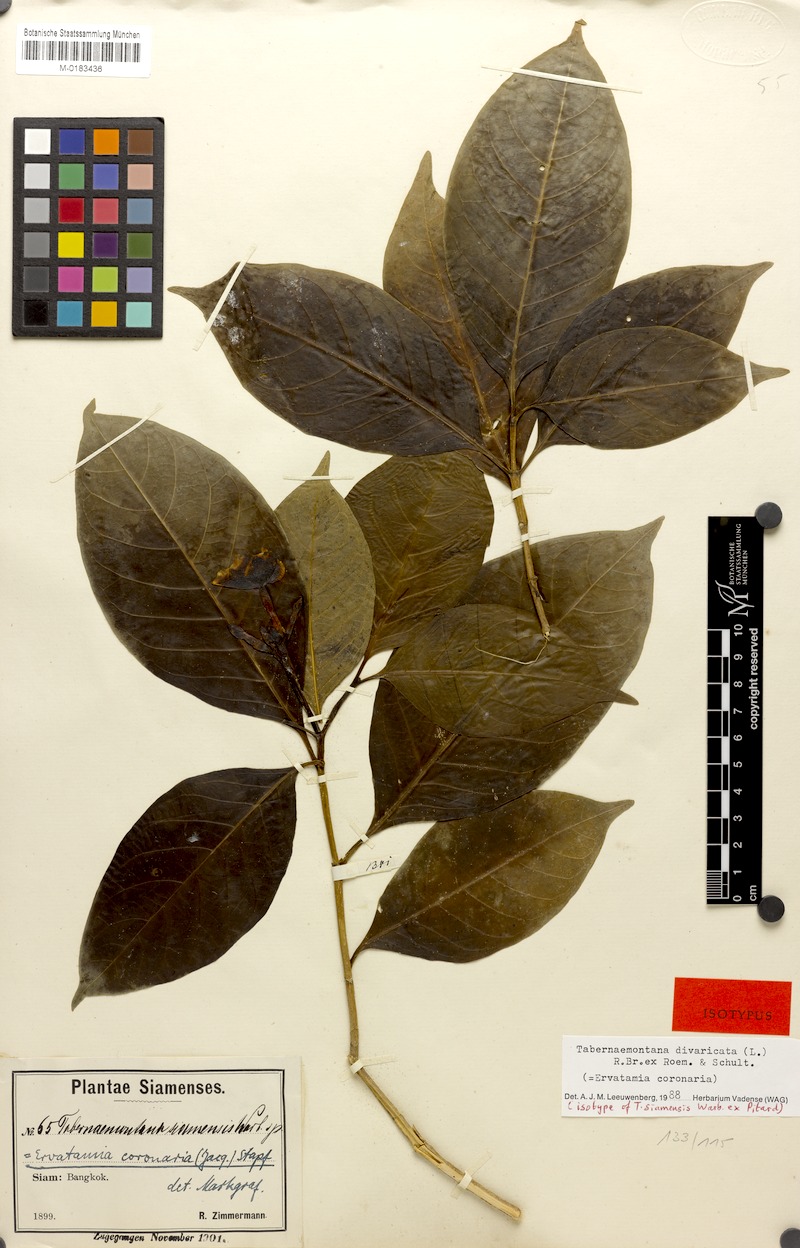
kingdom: Plantae
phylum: Tracheophyta
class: Magnoliopsida
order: Gentianales
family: Apocynaceae
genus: Tabernaemontana
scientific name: Tabernaemontana divaricata
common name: Pinwheelflower
